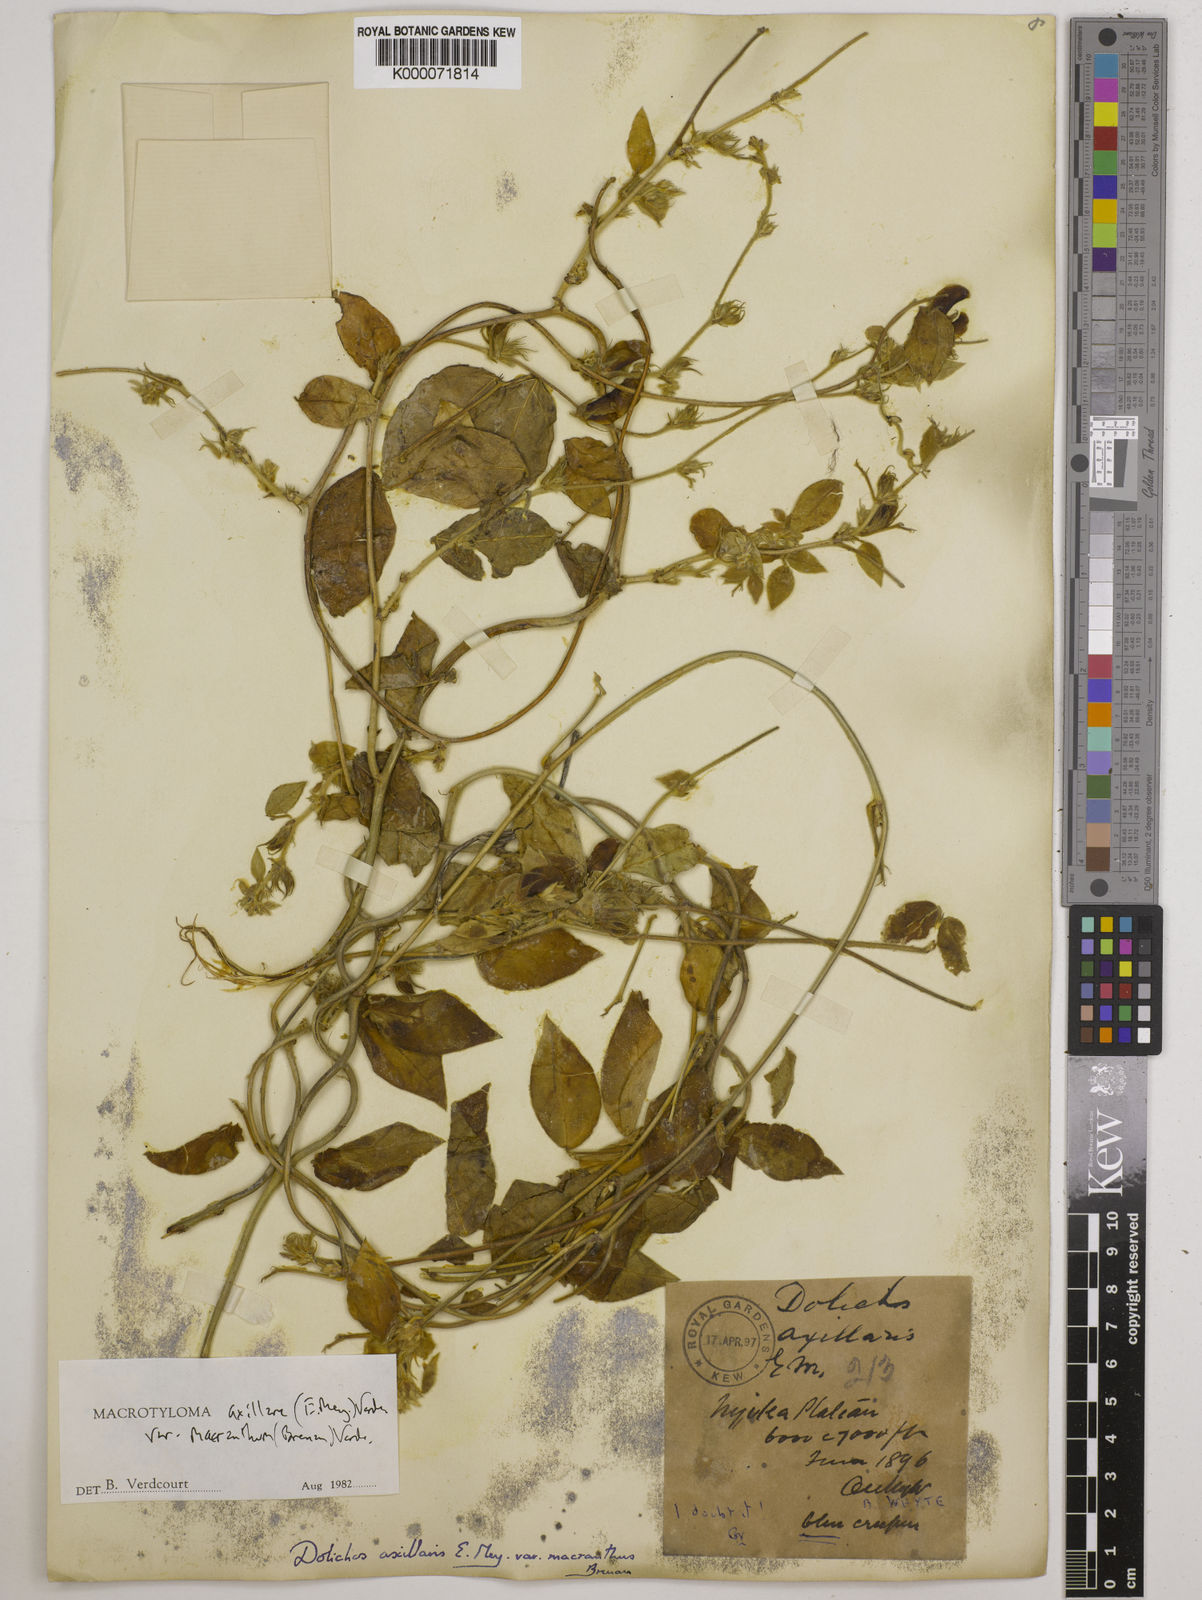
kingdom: Plantae
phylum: Tracheophyta
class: Magnoliopsida
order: Fabales
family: Fabaceae
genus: Macrotyloma
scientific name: Macrotyloma axillare
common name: Perennial horsegram
